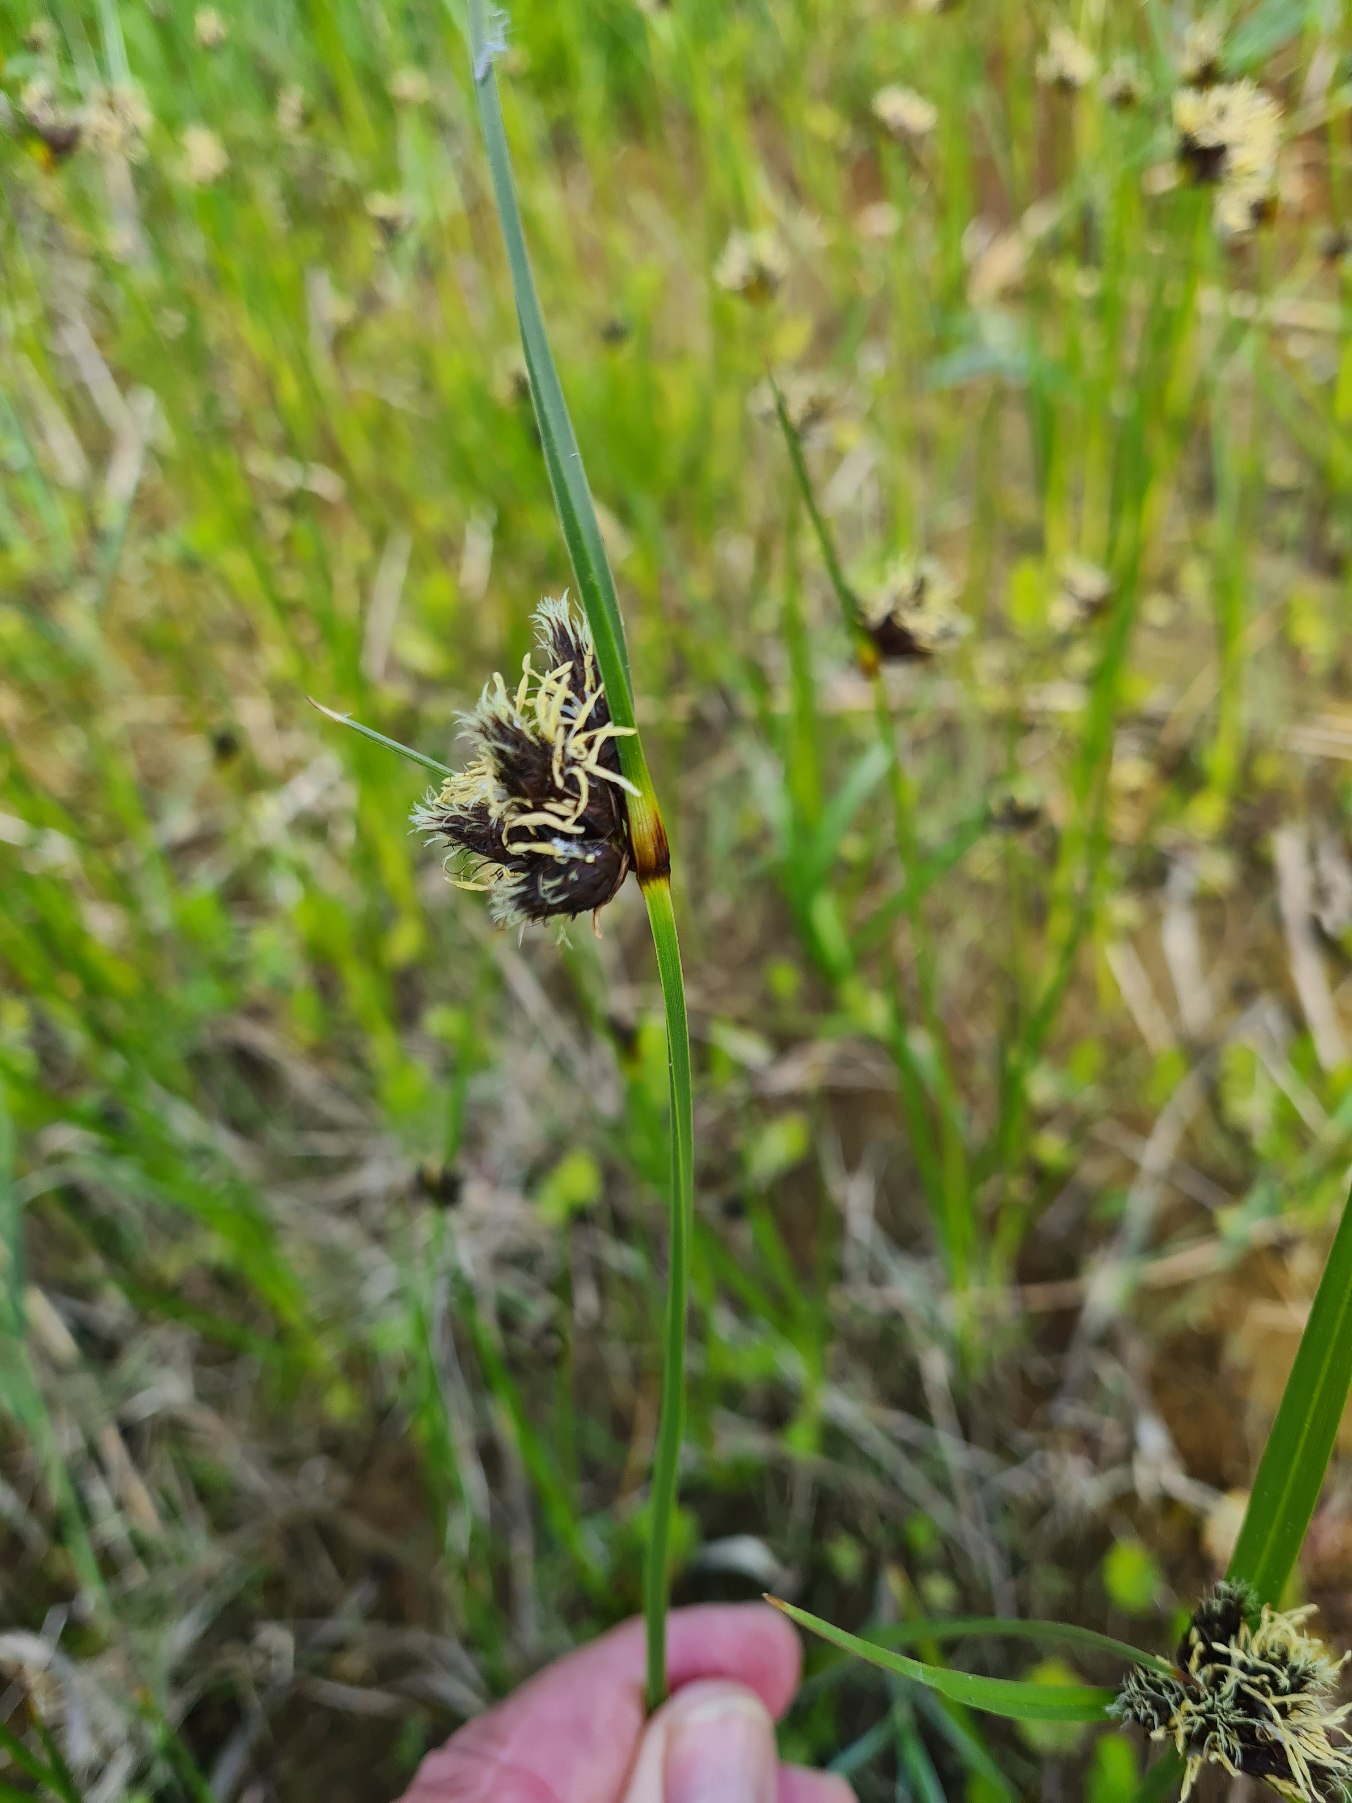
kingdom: Plantae
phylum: Tracheophyta
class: Liliopsida
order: Poales
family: Cyperaceae
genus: Bolboschoenus
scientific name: Bolboschoenus maritimus
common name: Strand-kogleaks
